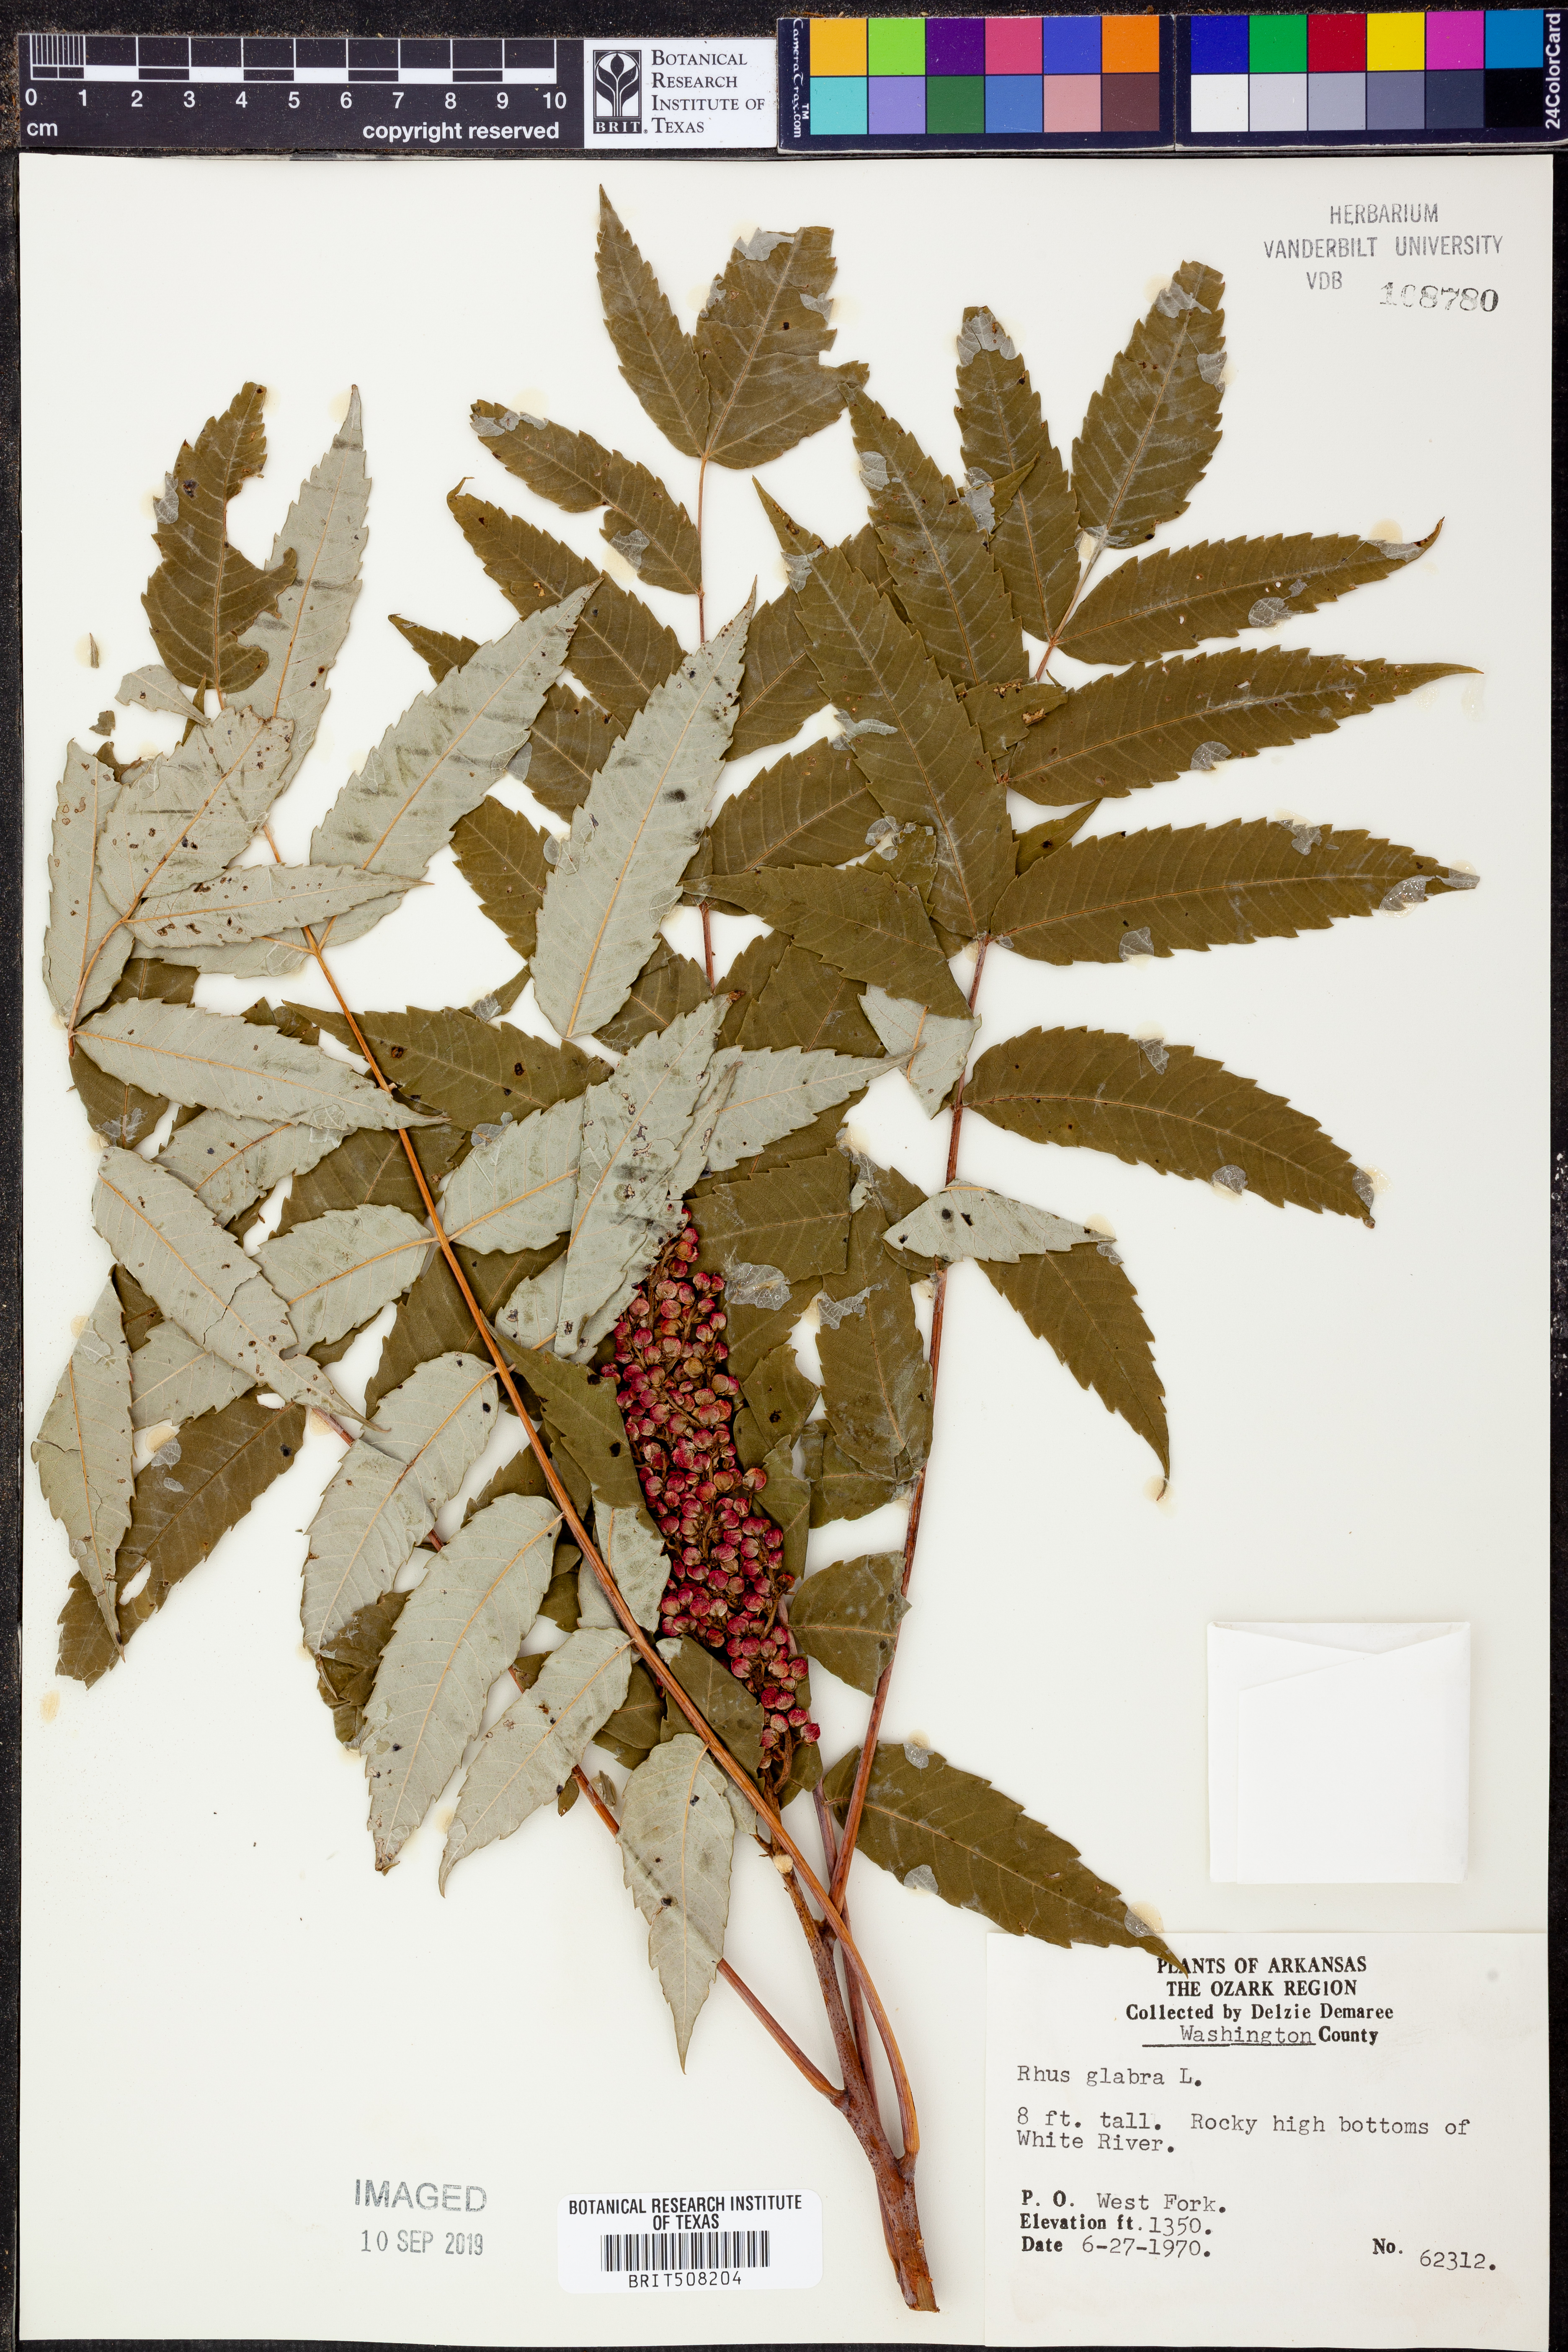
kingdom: Plantae
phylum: Tracheophyta
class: Magnoliopsida
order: Sapindales
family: Anacardiaceae
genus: Rhus
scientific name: Rhus glabra
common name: Scarlet sumac
